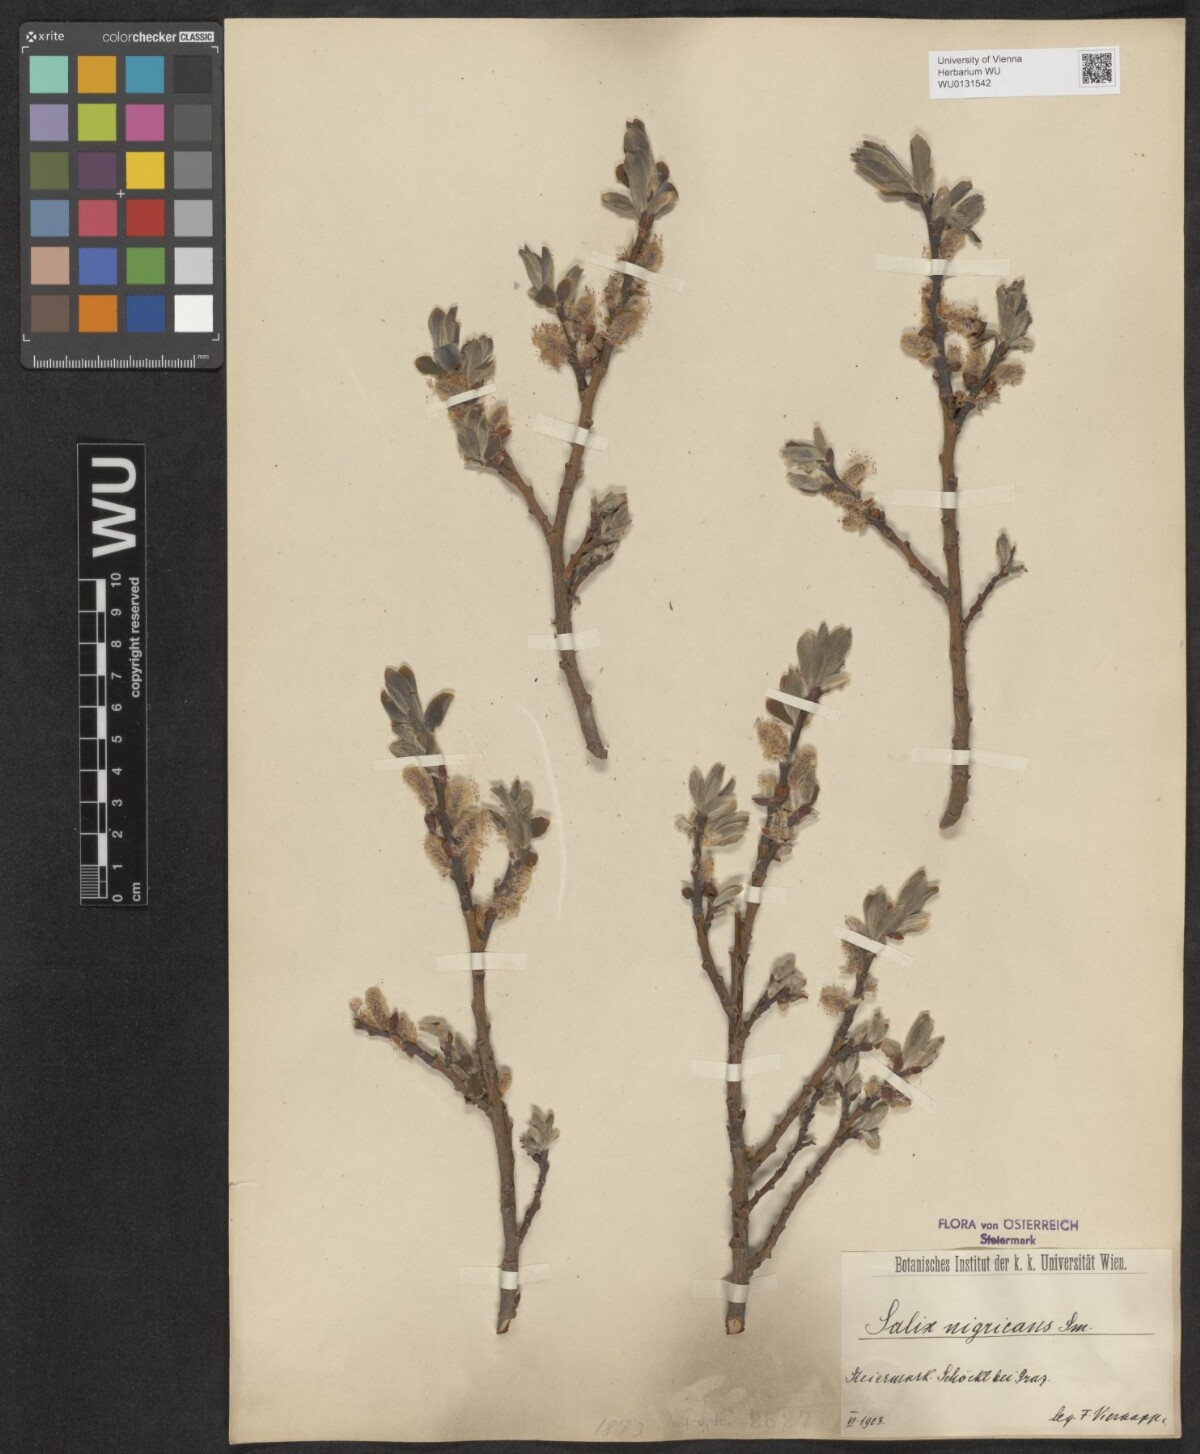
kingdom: Plantae
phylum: Tracheophyta
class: Magnoliopsida
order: Malpighiales
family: Salicaceae
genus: Salix
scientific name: Salix myrsinifolia
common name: Dark-leaved willow
